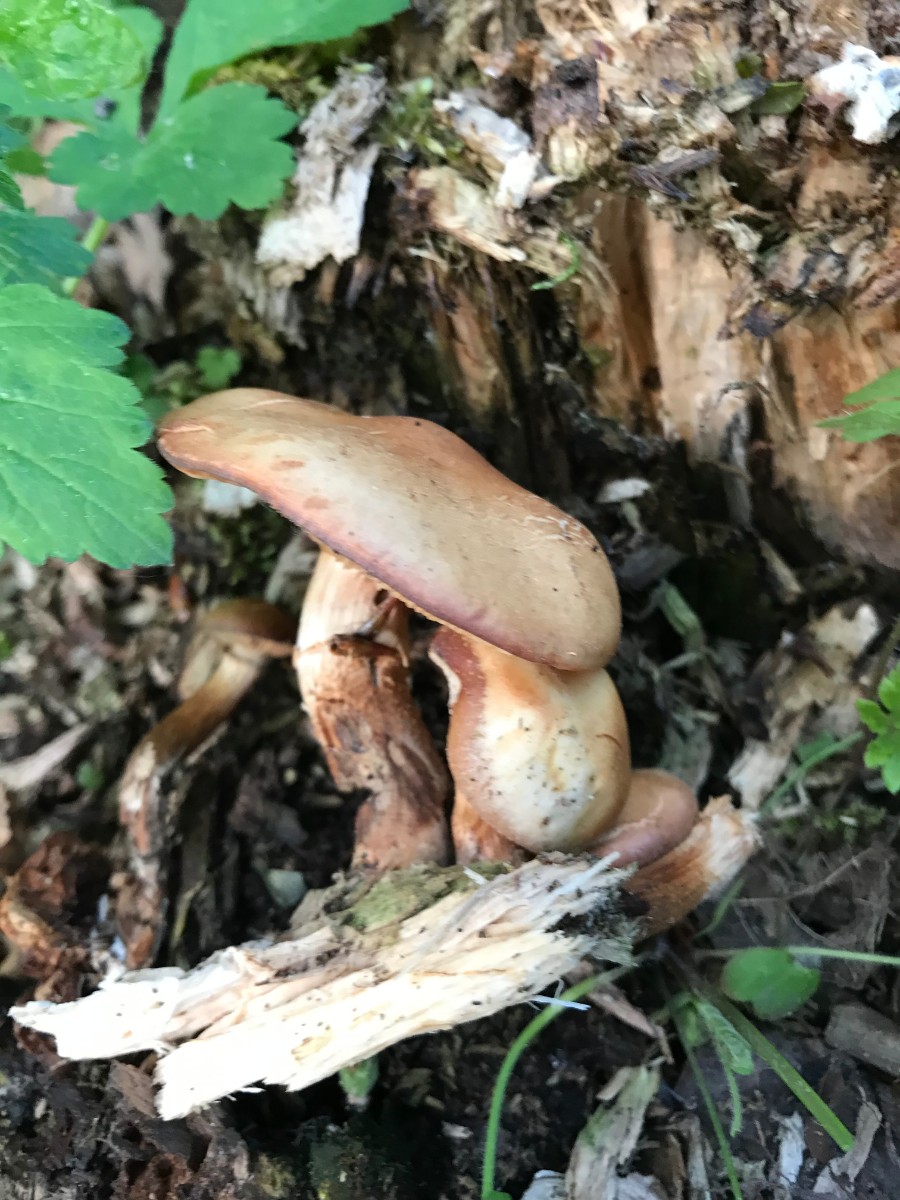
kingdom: Fungi
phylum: Basidiomycota
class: Agaricomycetes
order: Agaricales
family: Strophariaceae
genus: Kuehneromyces
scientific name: Kuehneromyces mutabilis
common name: foranderlig skælhat
